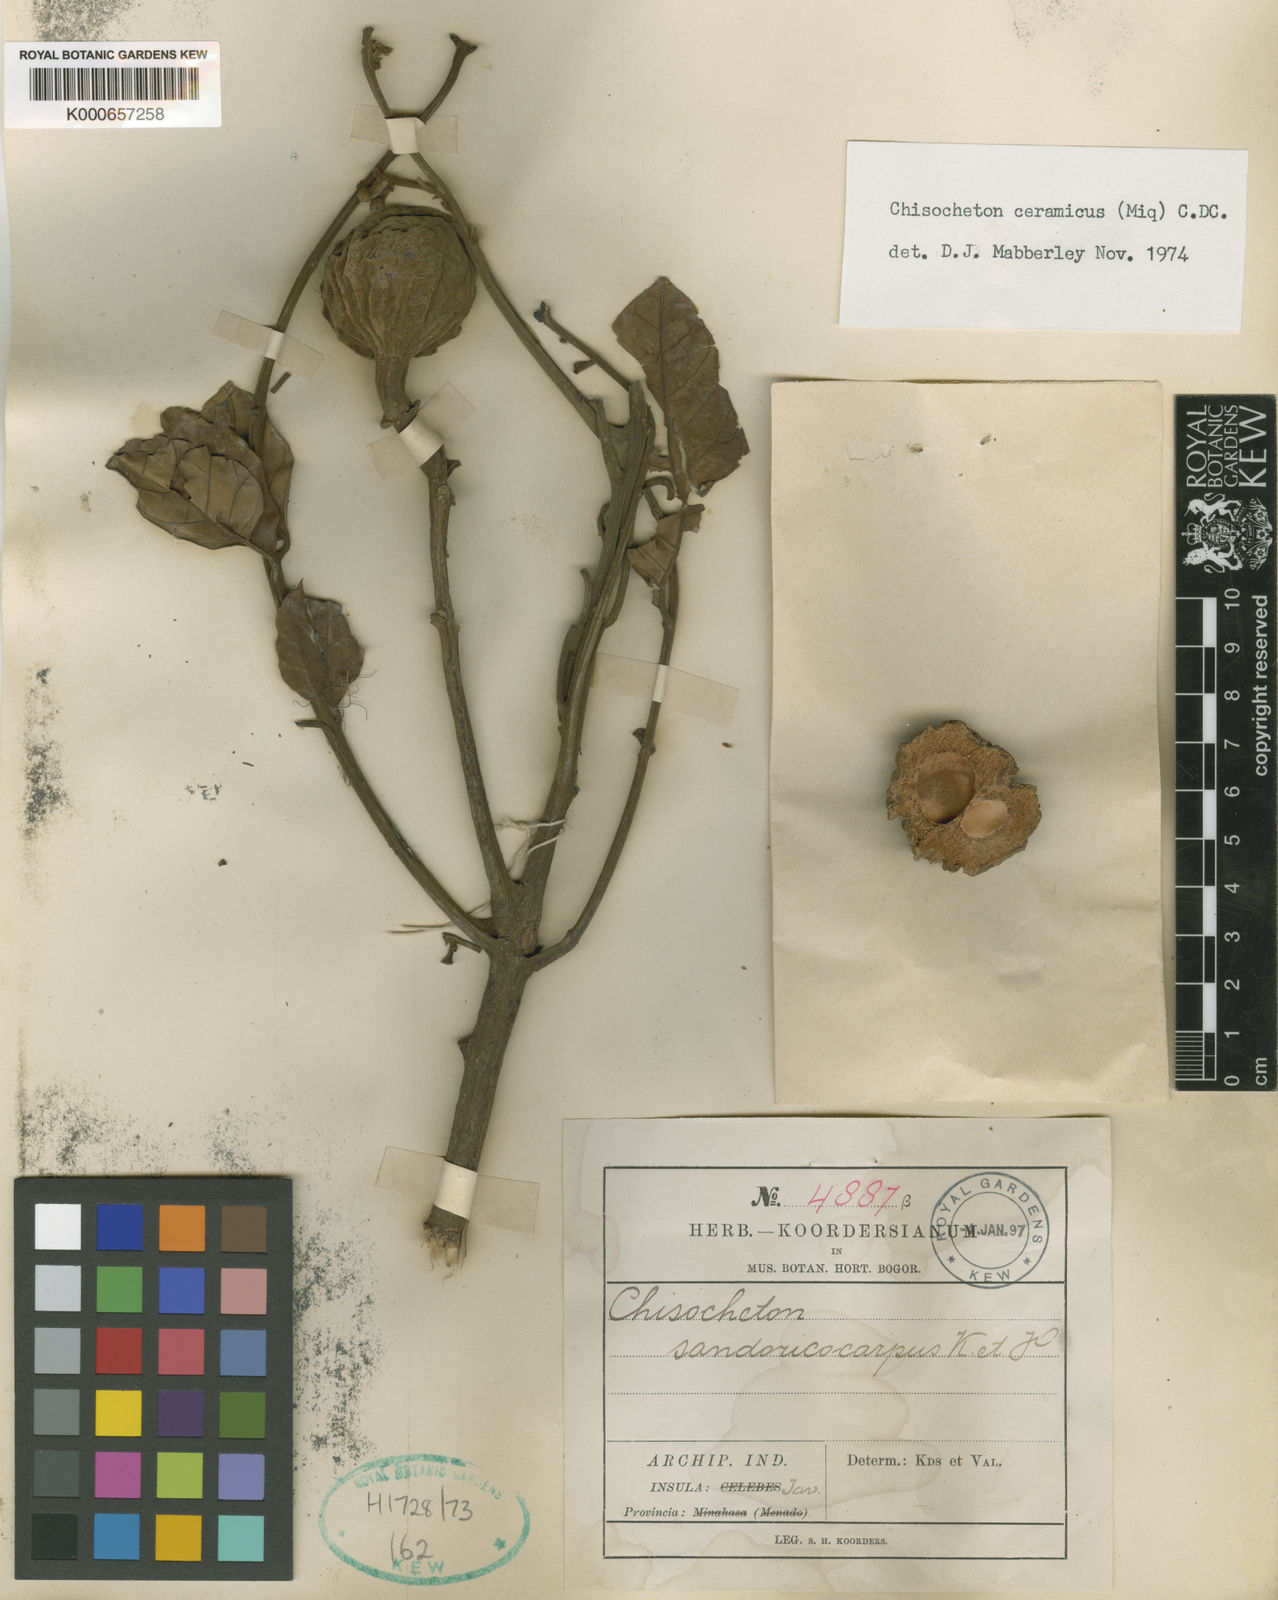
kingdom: Plantae
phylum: Tracheophyta
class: Magnoliopsida
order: Sapindales
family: Meliaceae
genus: Chisocheton
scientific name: Chisocheton ceramicus
